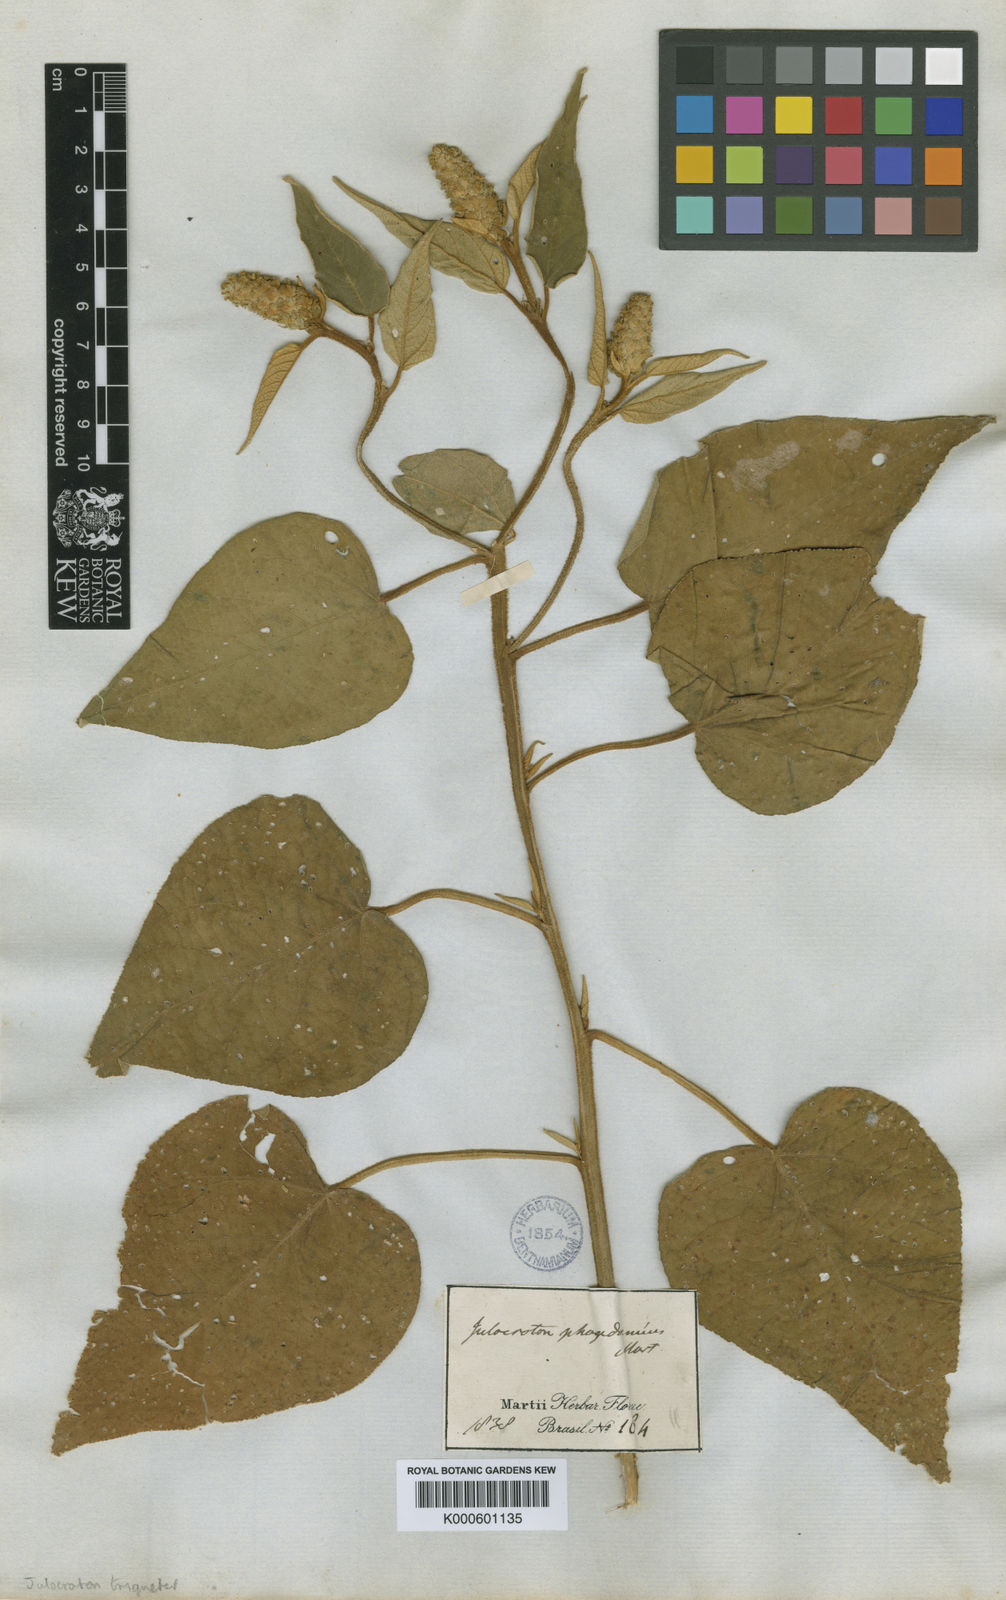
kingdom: Plantae
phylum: Tracheophyta
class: Magnoliopsida
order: Malpighiales
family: Euphorbiaceae
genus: Croton
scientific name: Croton triqueter
